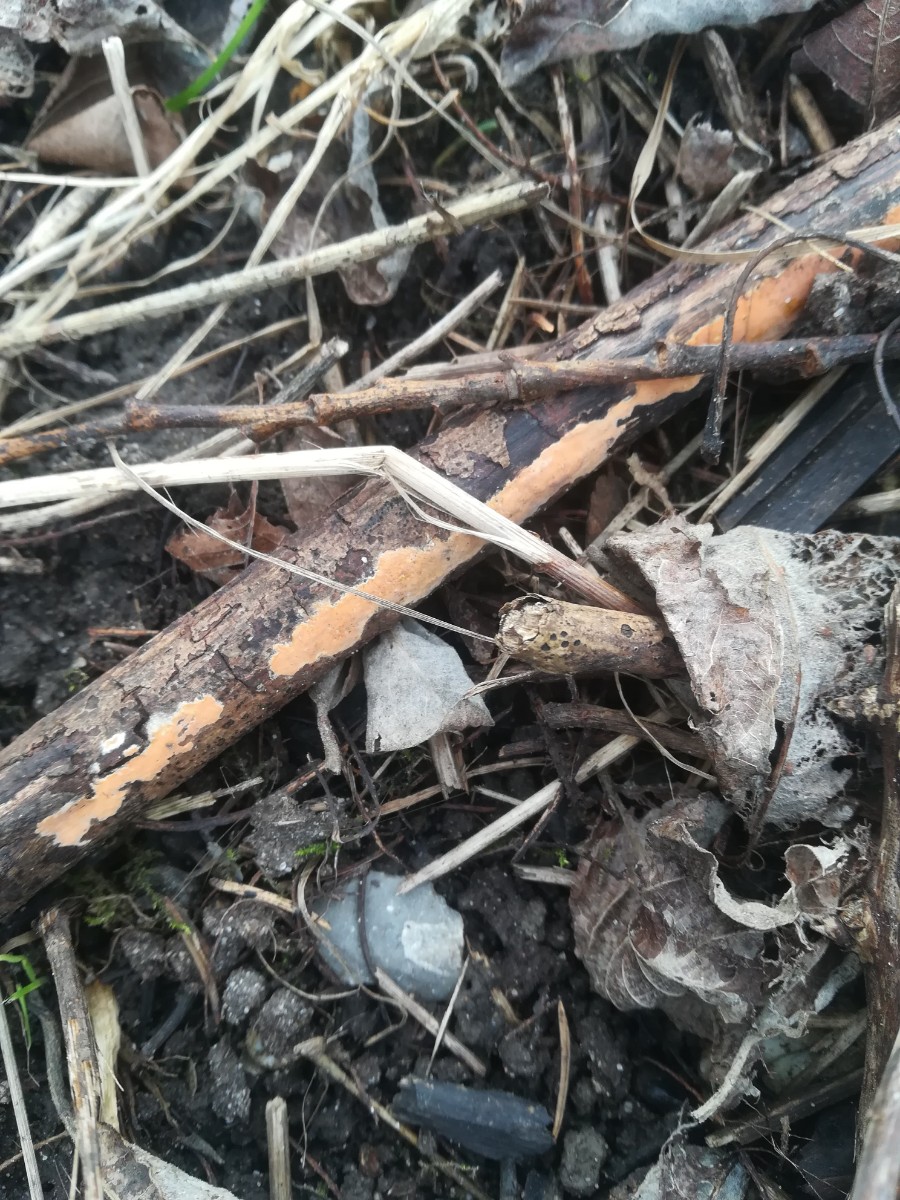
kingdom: Fungi
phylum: Basidiomycota
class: Agaricomycetes
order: Russulales
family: Peniophoraceae
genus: Peniophora
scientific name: Peniophora incarnata
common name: laksefarvet voksskind
